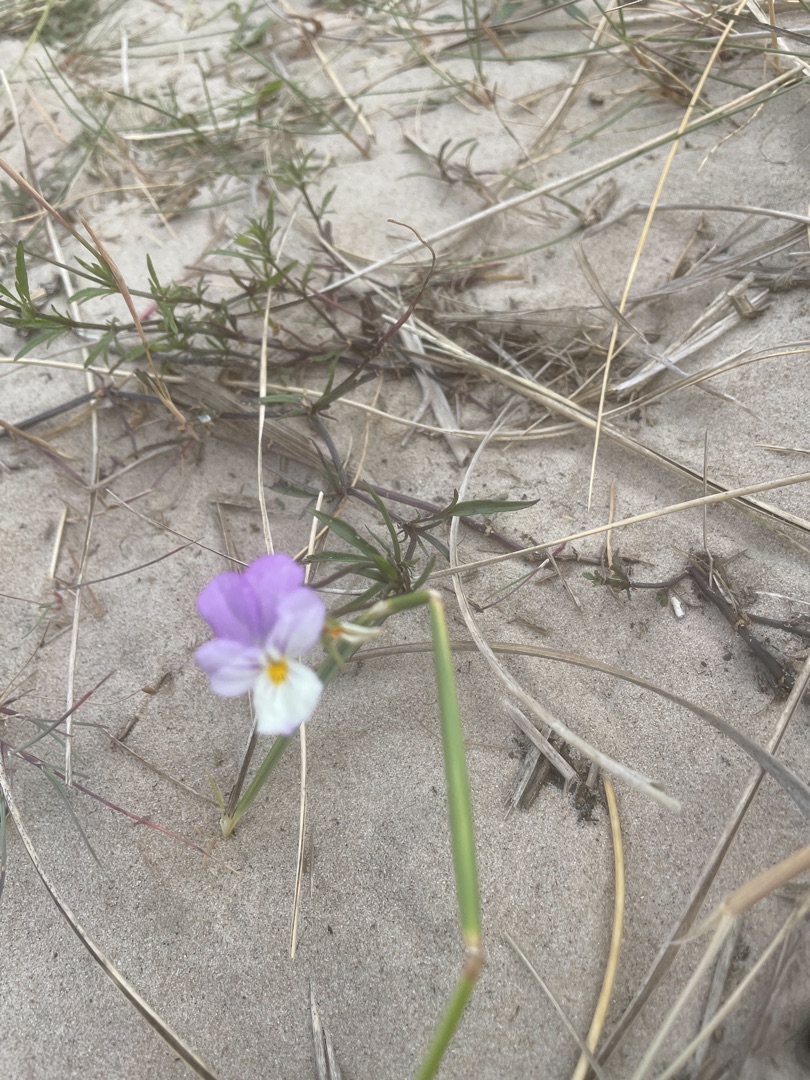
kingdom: Plantae
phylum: Tracheophyta
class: Magnoliopsida
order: Malpighiales
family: Violaceae
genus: Viola
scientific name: Viola tricolor
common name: Klit-stedmoderblomst
